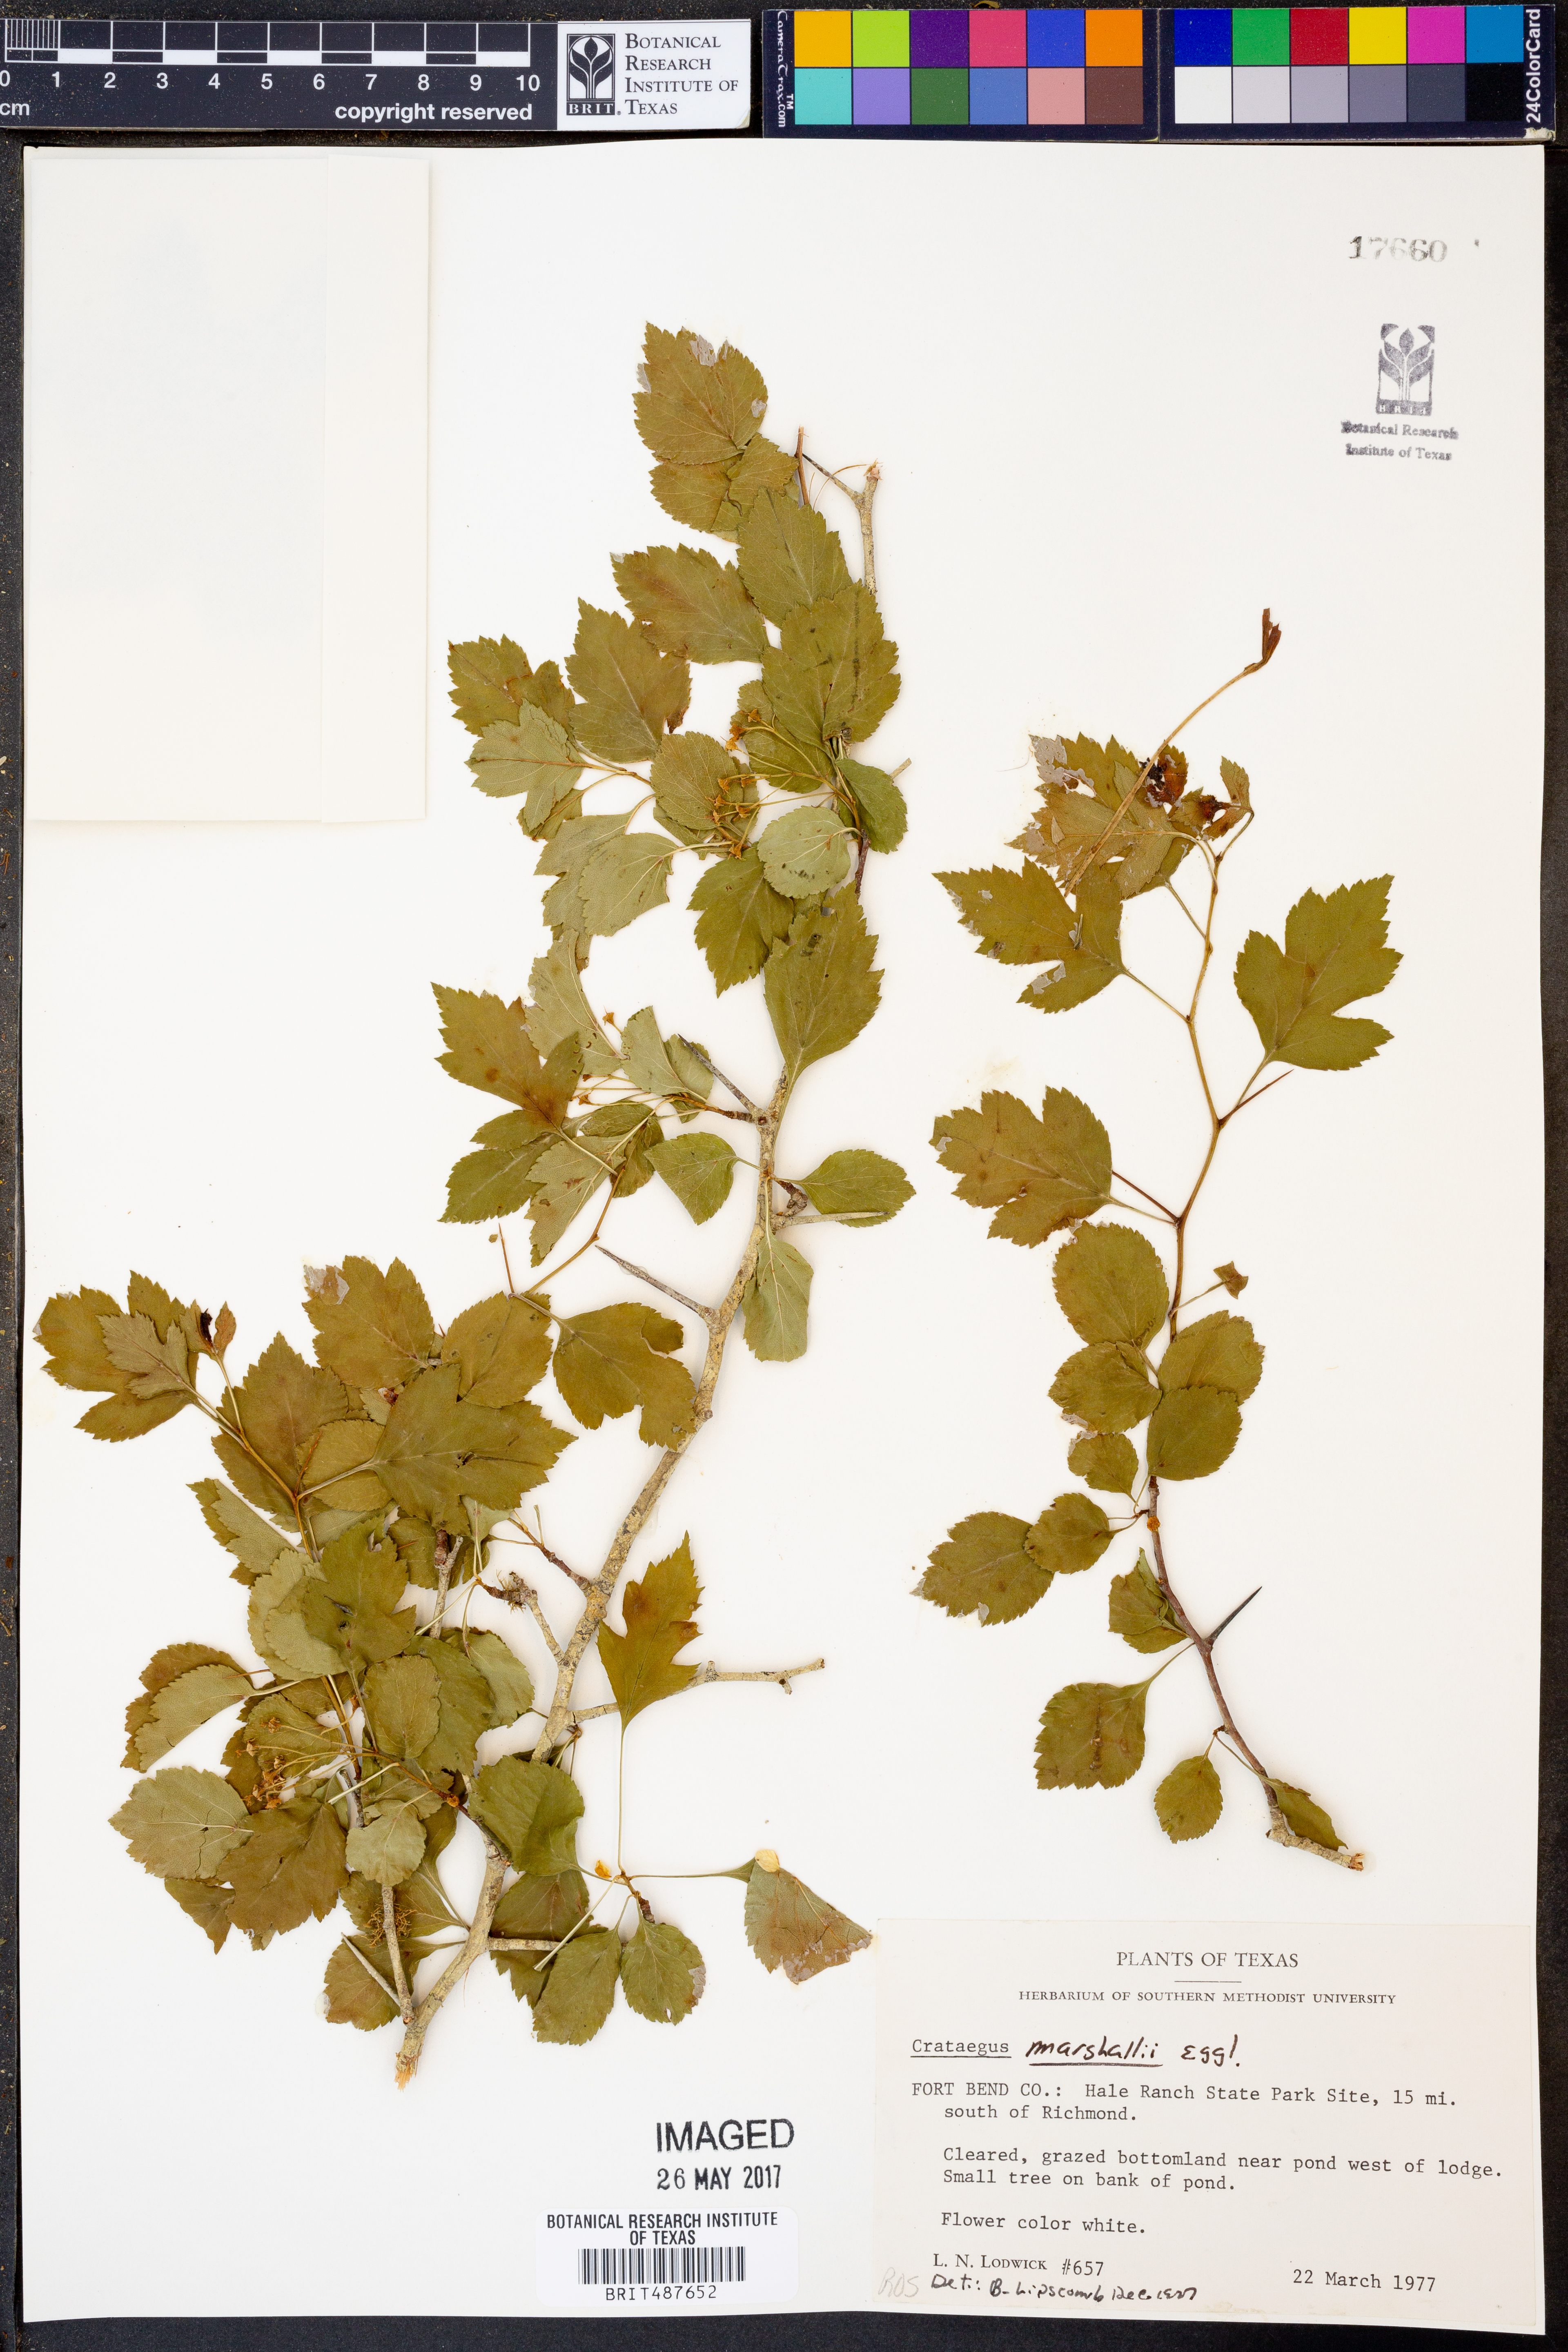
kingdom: Plantae
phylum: Tracheophyta
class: Magnoliopsida
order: Rosales
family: Rosaceae
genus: Crataegus
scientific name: Crataegus marshallii
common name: Parsley-hawthorn
